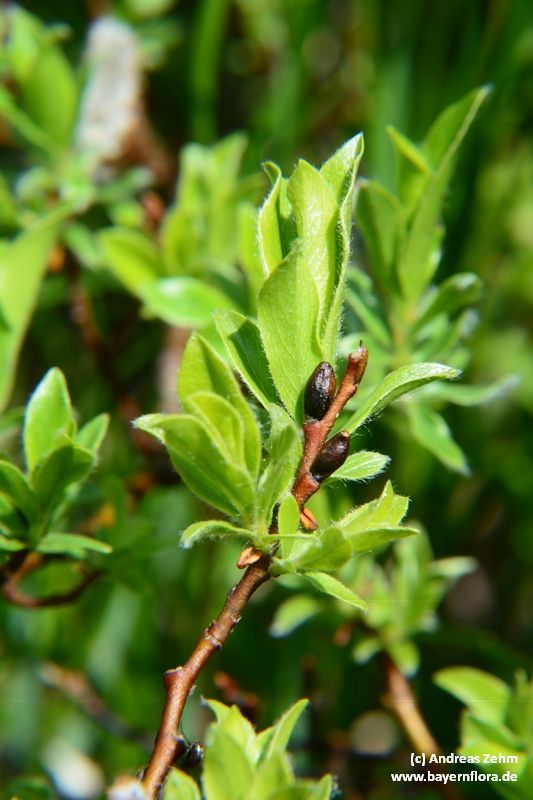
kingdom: Plantae
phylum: Tracheophyta
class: Magnoliopsida
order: Malpighiales
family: Salicaceae
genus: Salix
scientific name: Salix alpina
